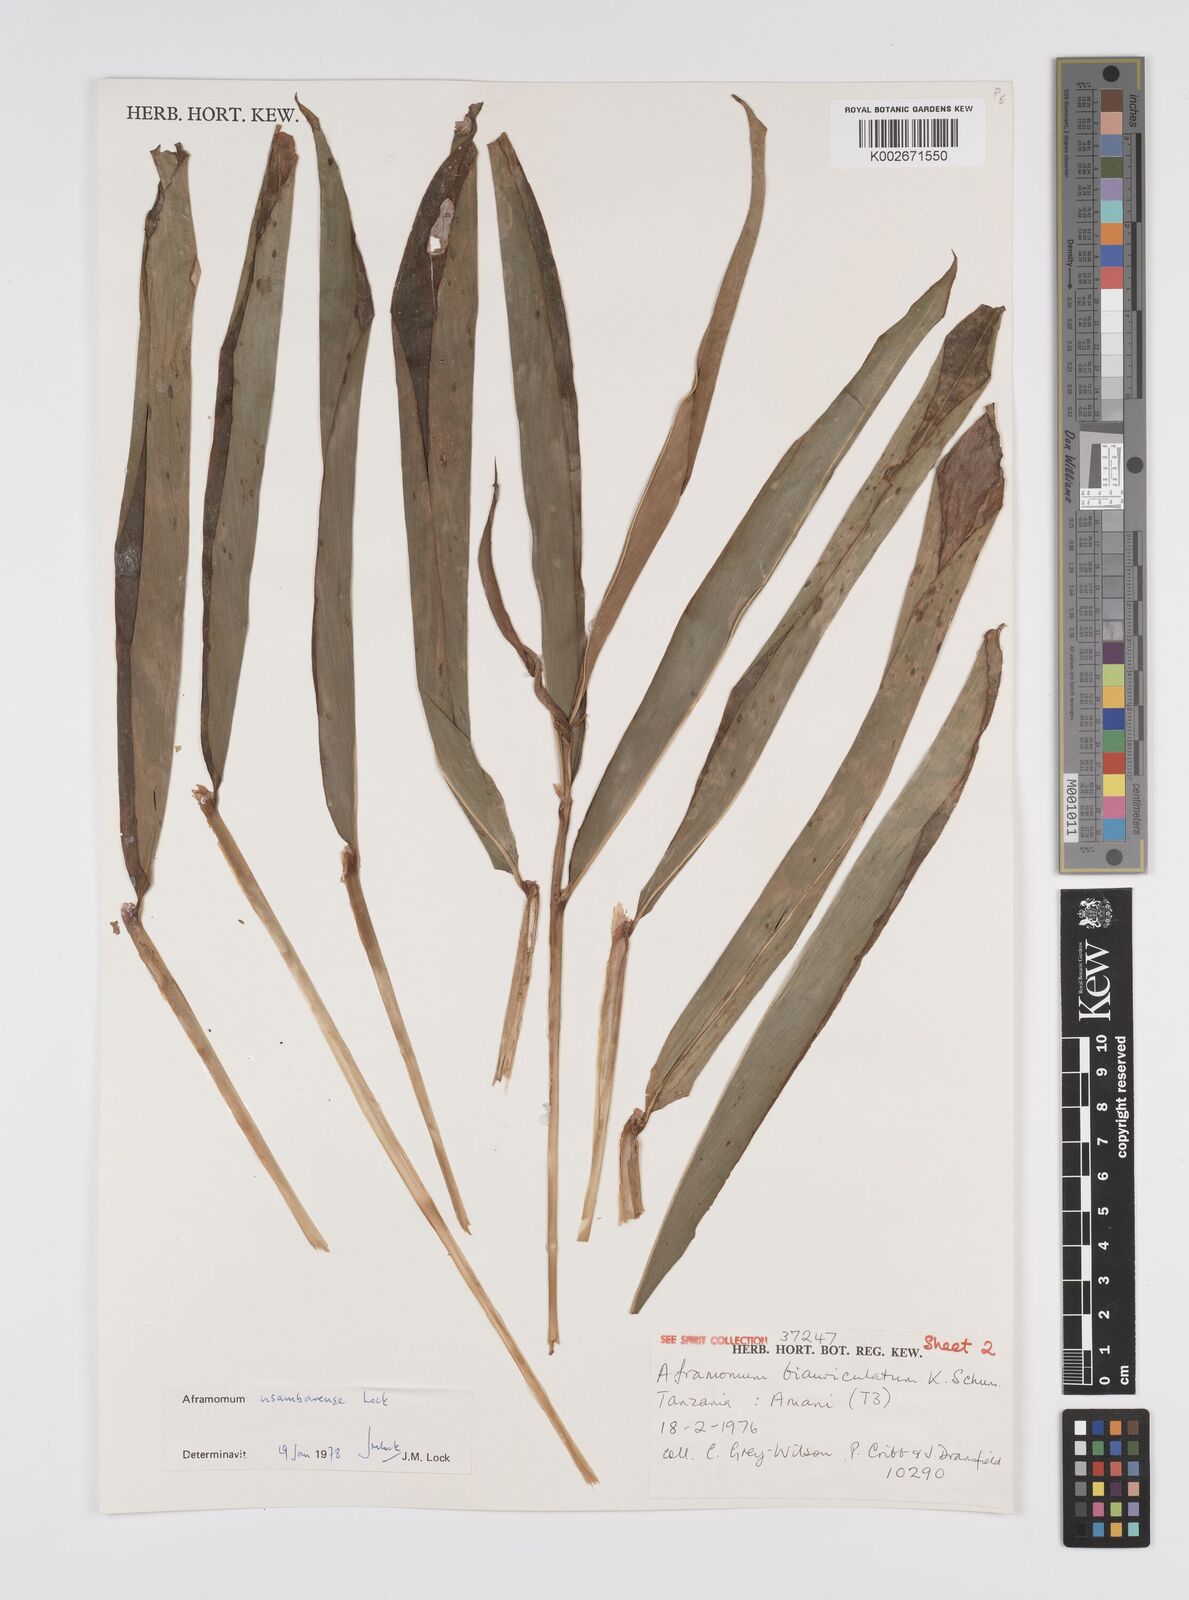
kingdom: Plantae
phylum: Tracheophyta
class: Liliopsida
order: Zingiberales
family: Zingiberaceae
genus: Aframomum
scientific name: Aframomum corrorima
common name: Ethiopian cardamom
